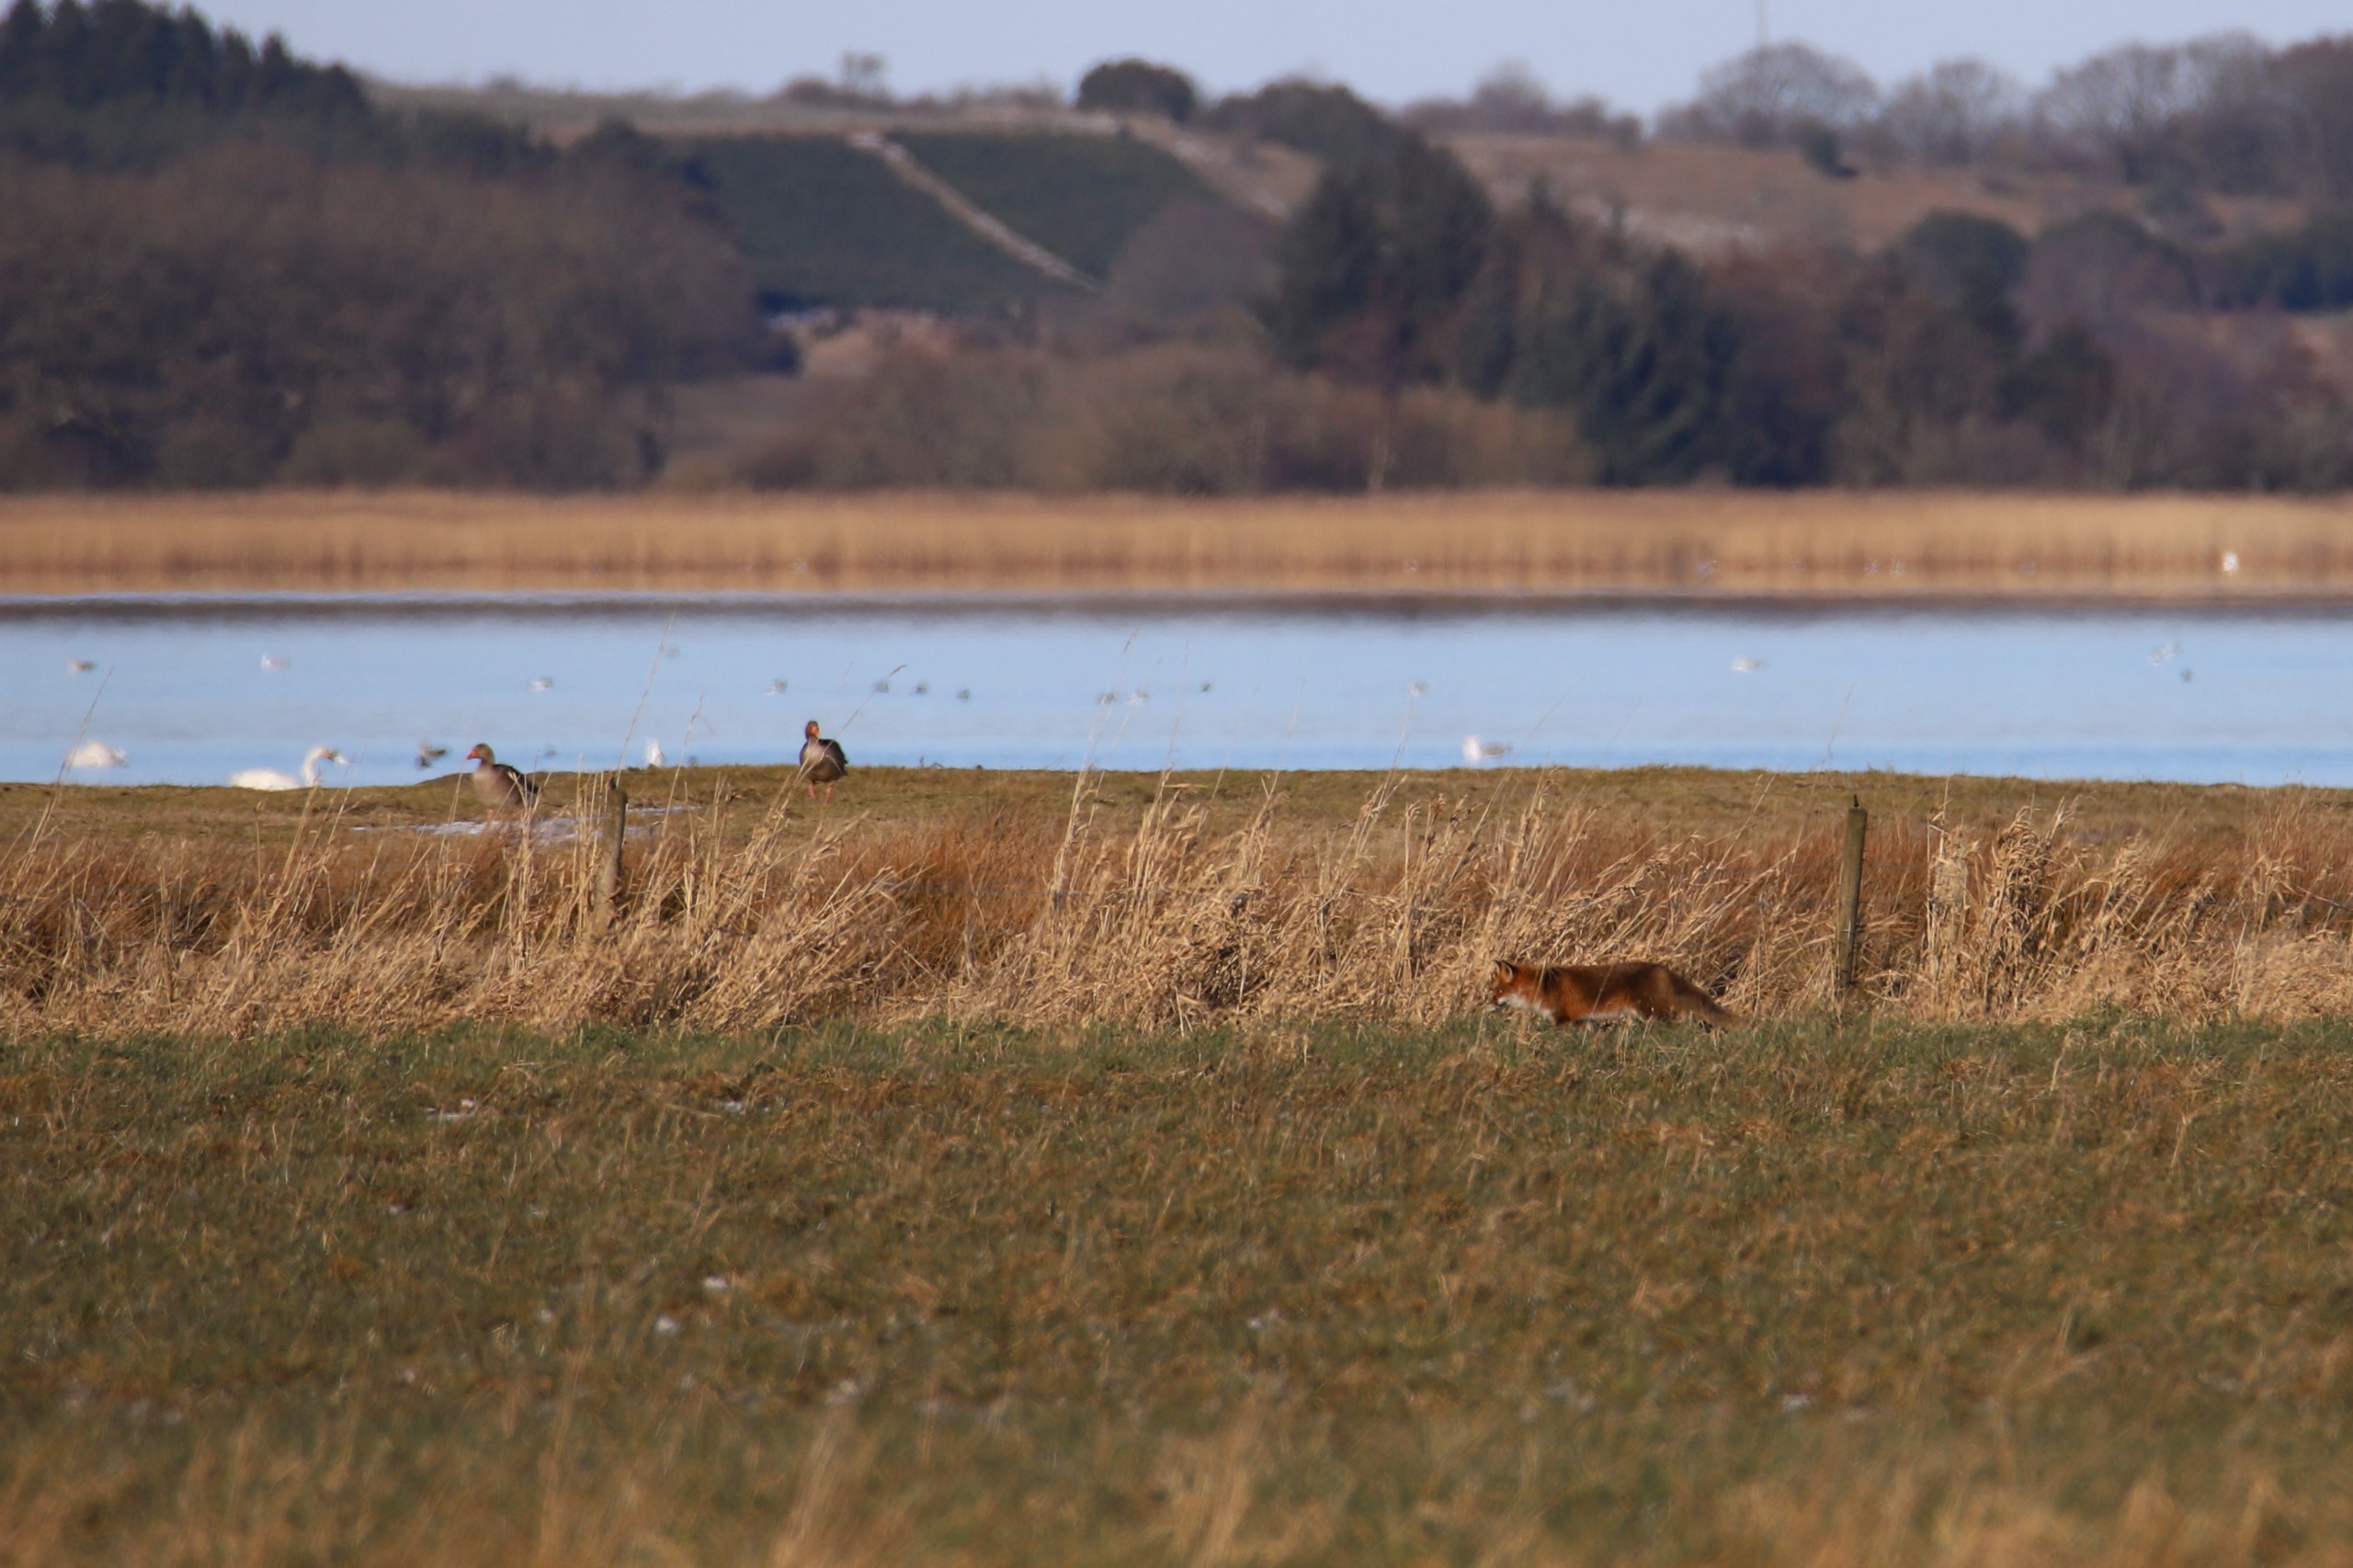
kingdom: Animalia
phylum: Chordata
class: Mammalia
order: Carnivora
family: Canidae
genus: Vulpes
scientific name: Vulpes vulpes
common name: Ræv
